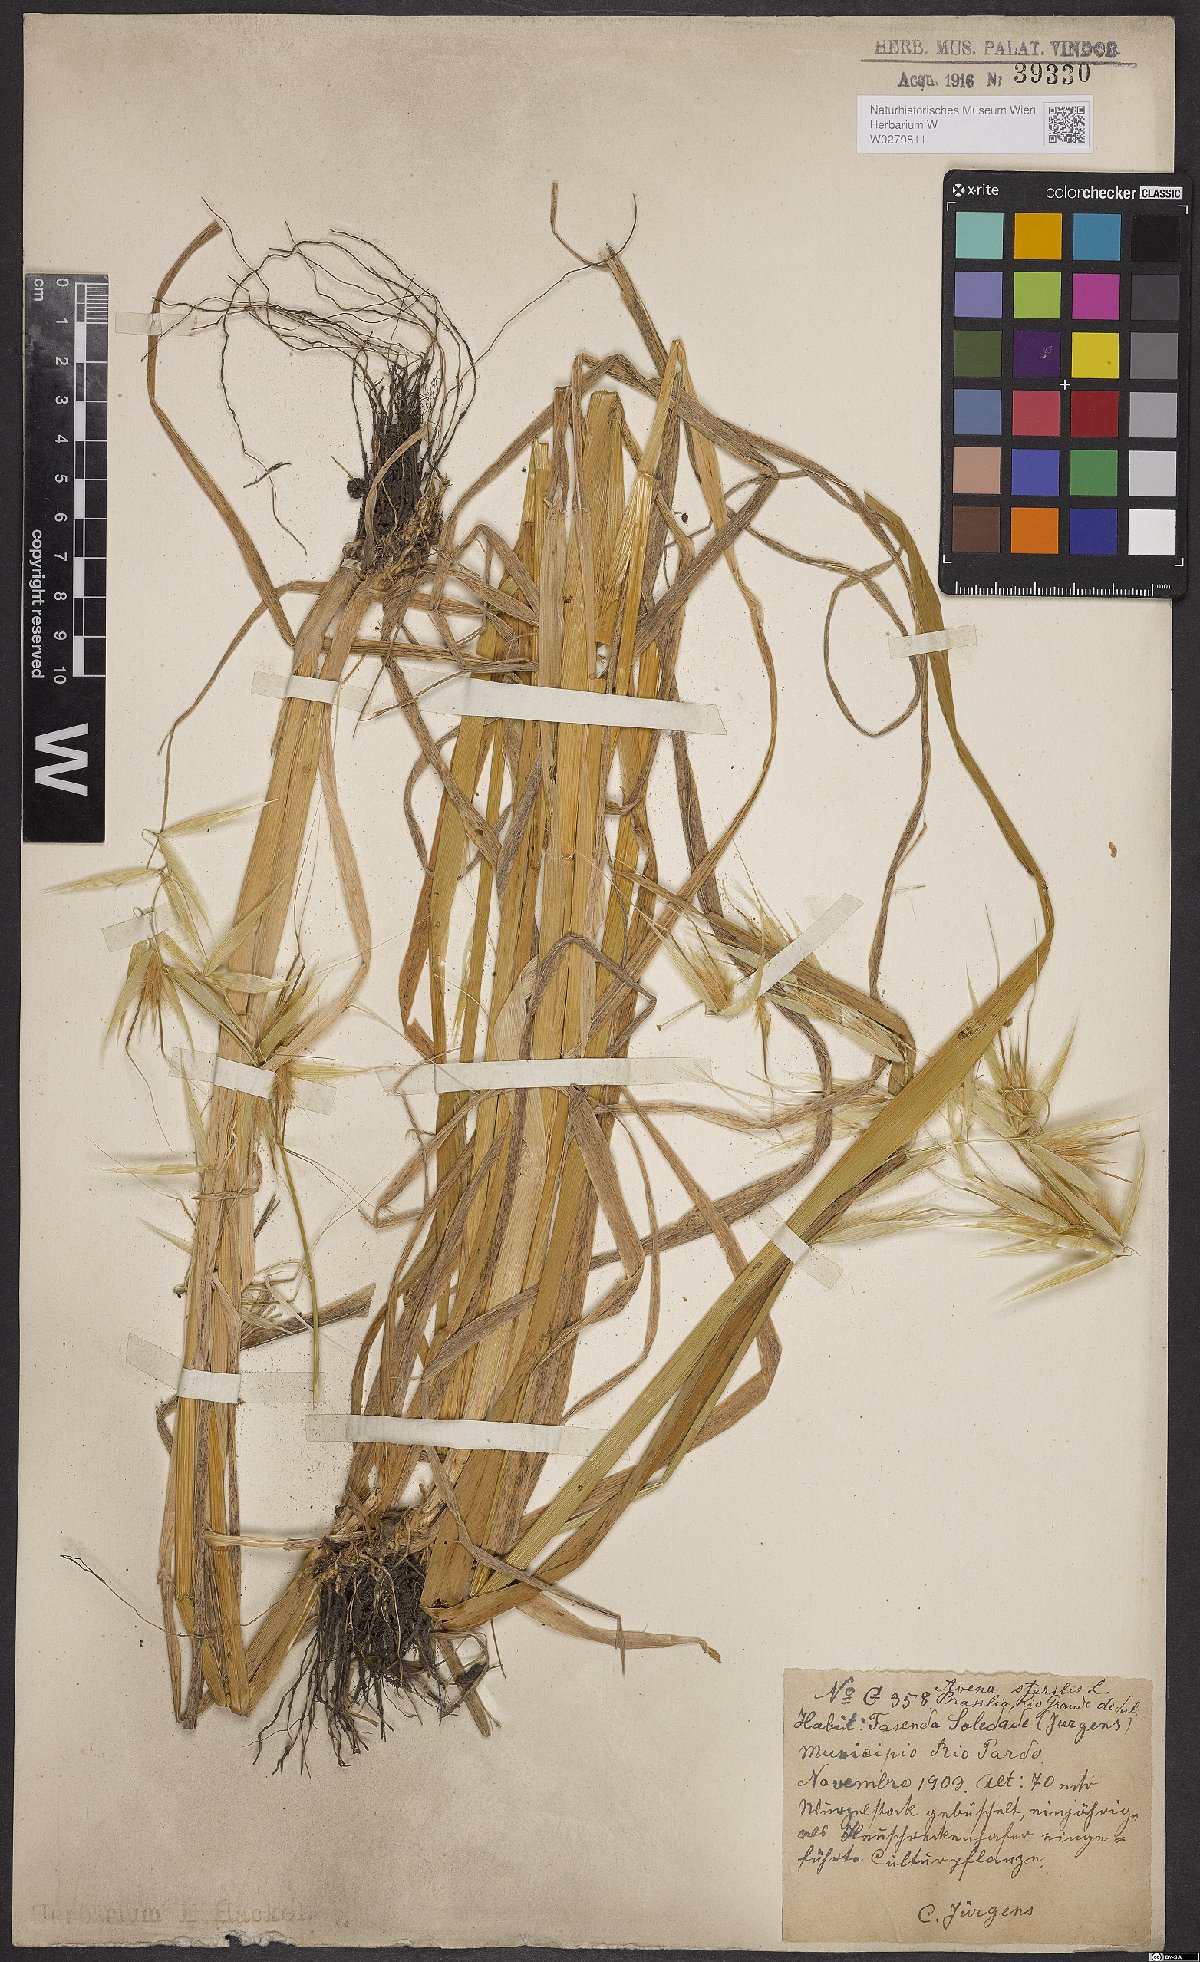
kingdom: Plantae
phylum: Tracheophyta
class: Liliopsida
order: Poales
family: Poaceae
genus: Avena
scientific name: Avena sterilis
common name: Animated oat
